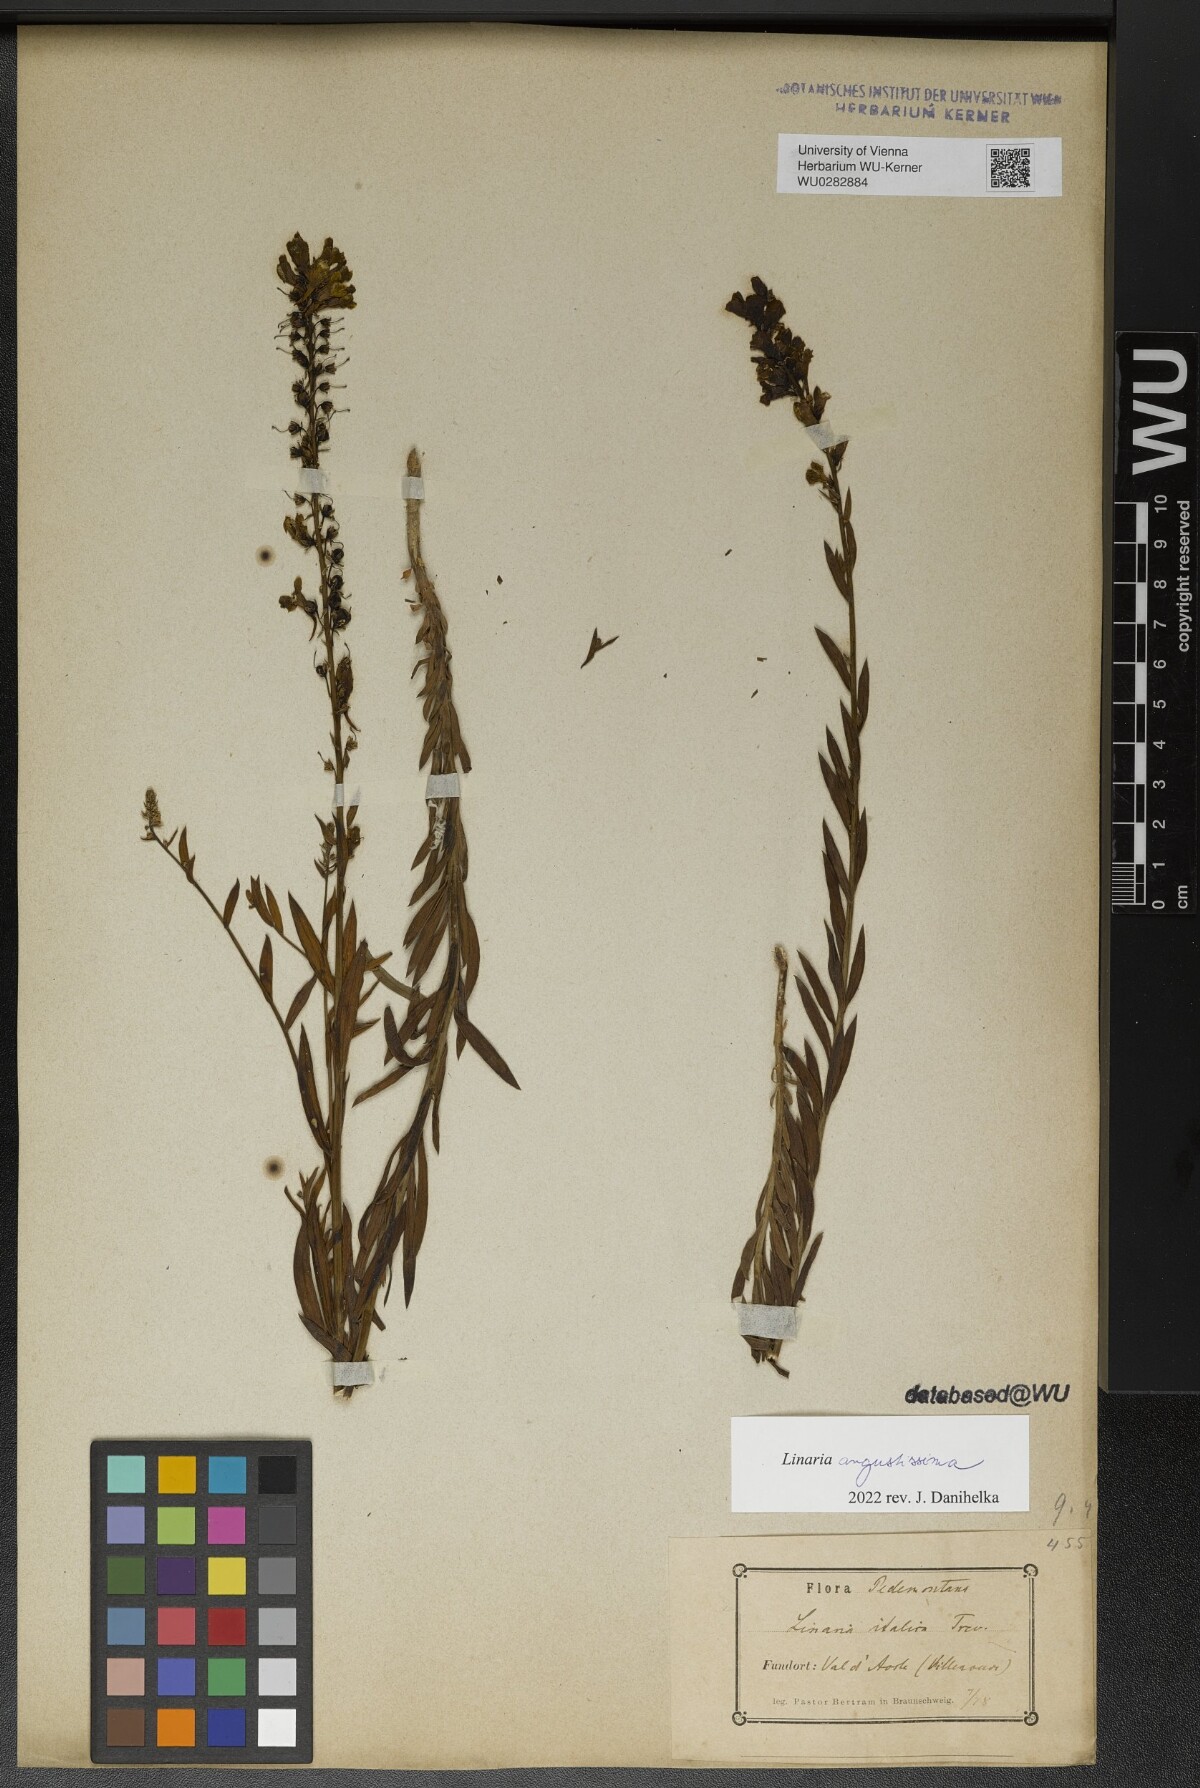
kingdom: Plantae
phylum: Tracheophyta
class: Magnoliopsida
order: Lamiales
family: Plantaginaceae
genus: Linaria
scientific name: Linaria angustissima
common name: Italian toadflax
